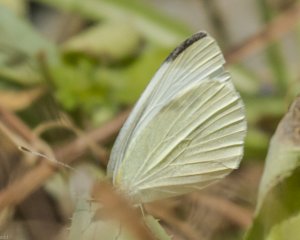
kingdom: Animalia
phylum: Arthropoda
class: Insecta
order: Lepidoptera
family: Pieridae
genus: Pieris
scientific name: Pieris rapae
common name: Cabbage White
